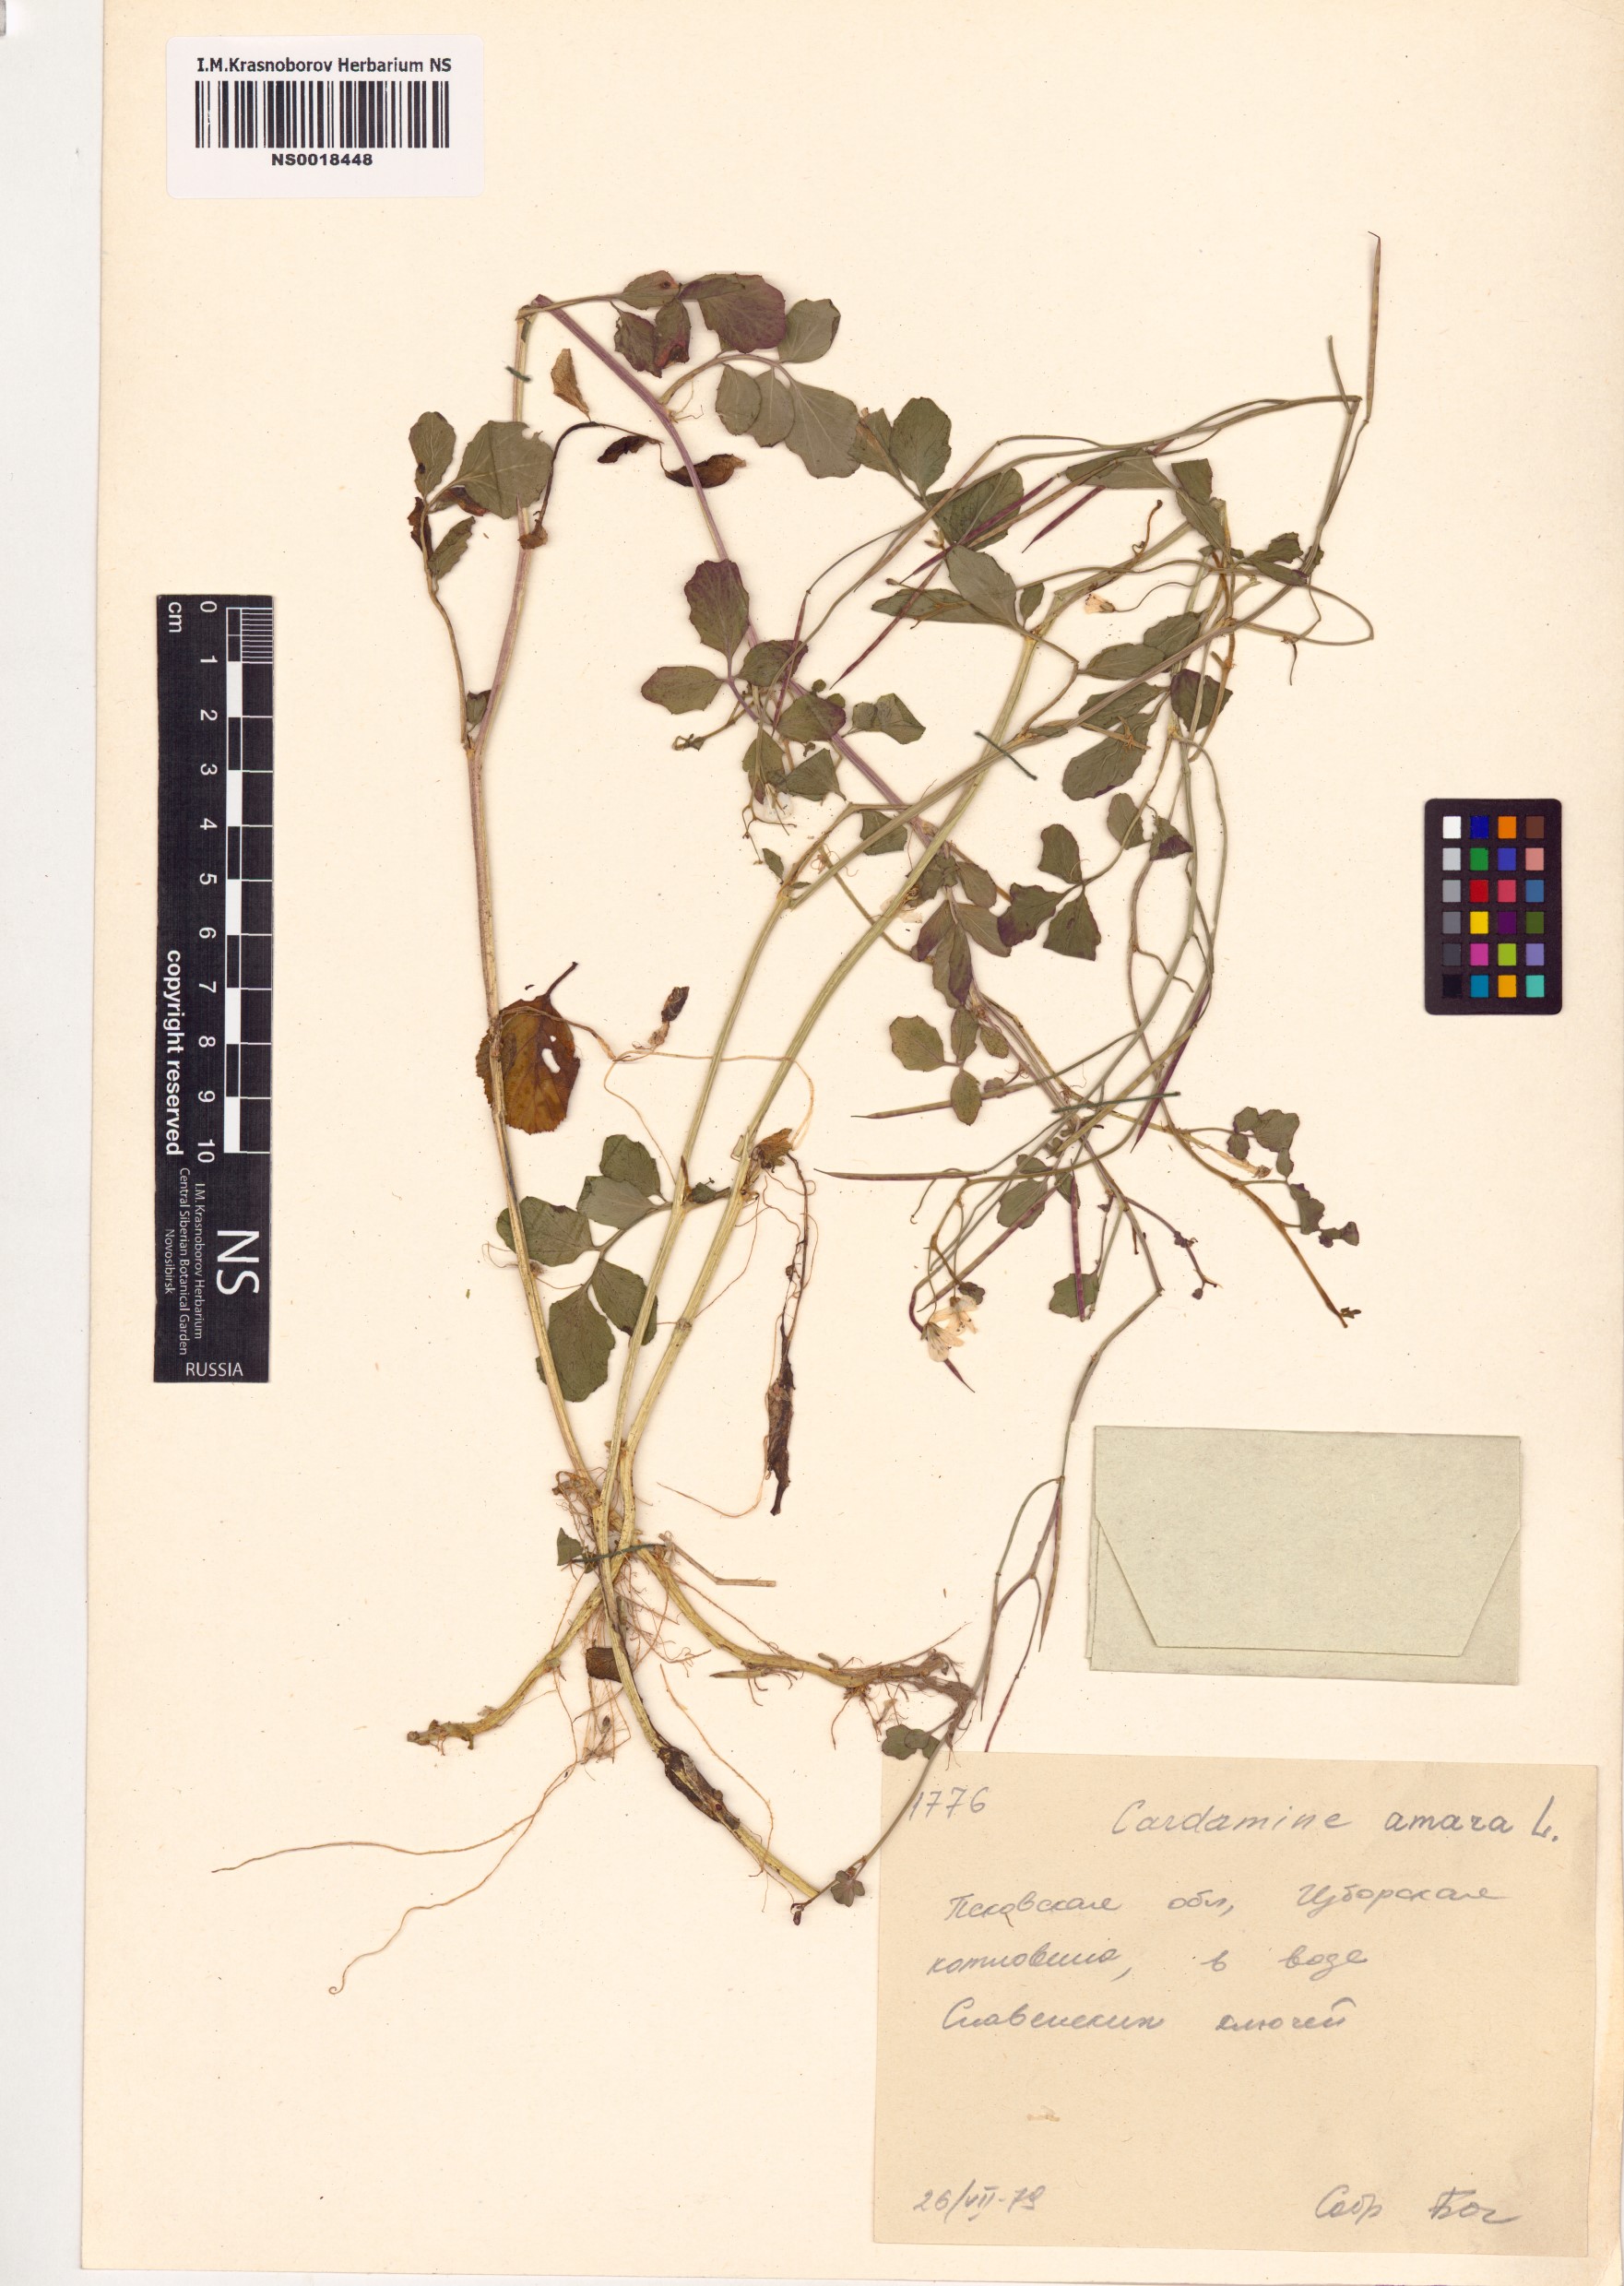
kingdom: Plantae
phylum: Tracheophyta
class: Magnoliopsida
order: Brassicales
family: Brassicaceae
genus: Cardamine
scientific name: Cardamine amara
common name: Large bitter-cress
